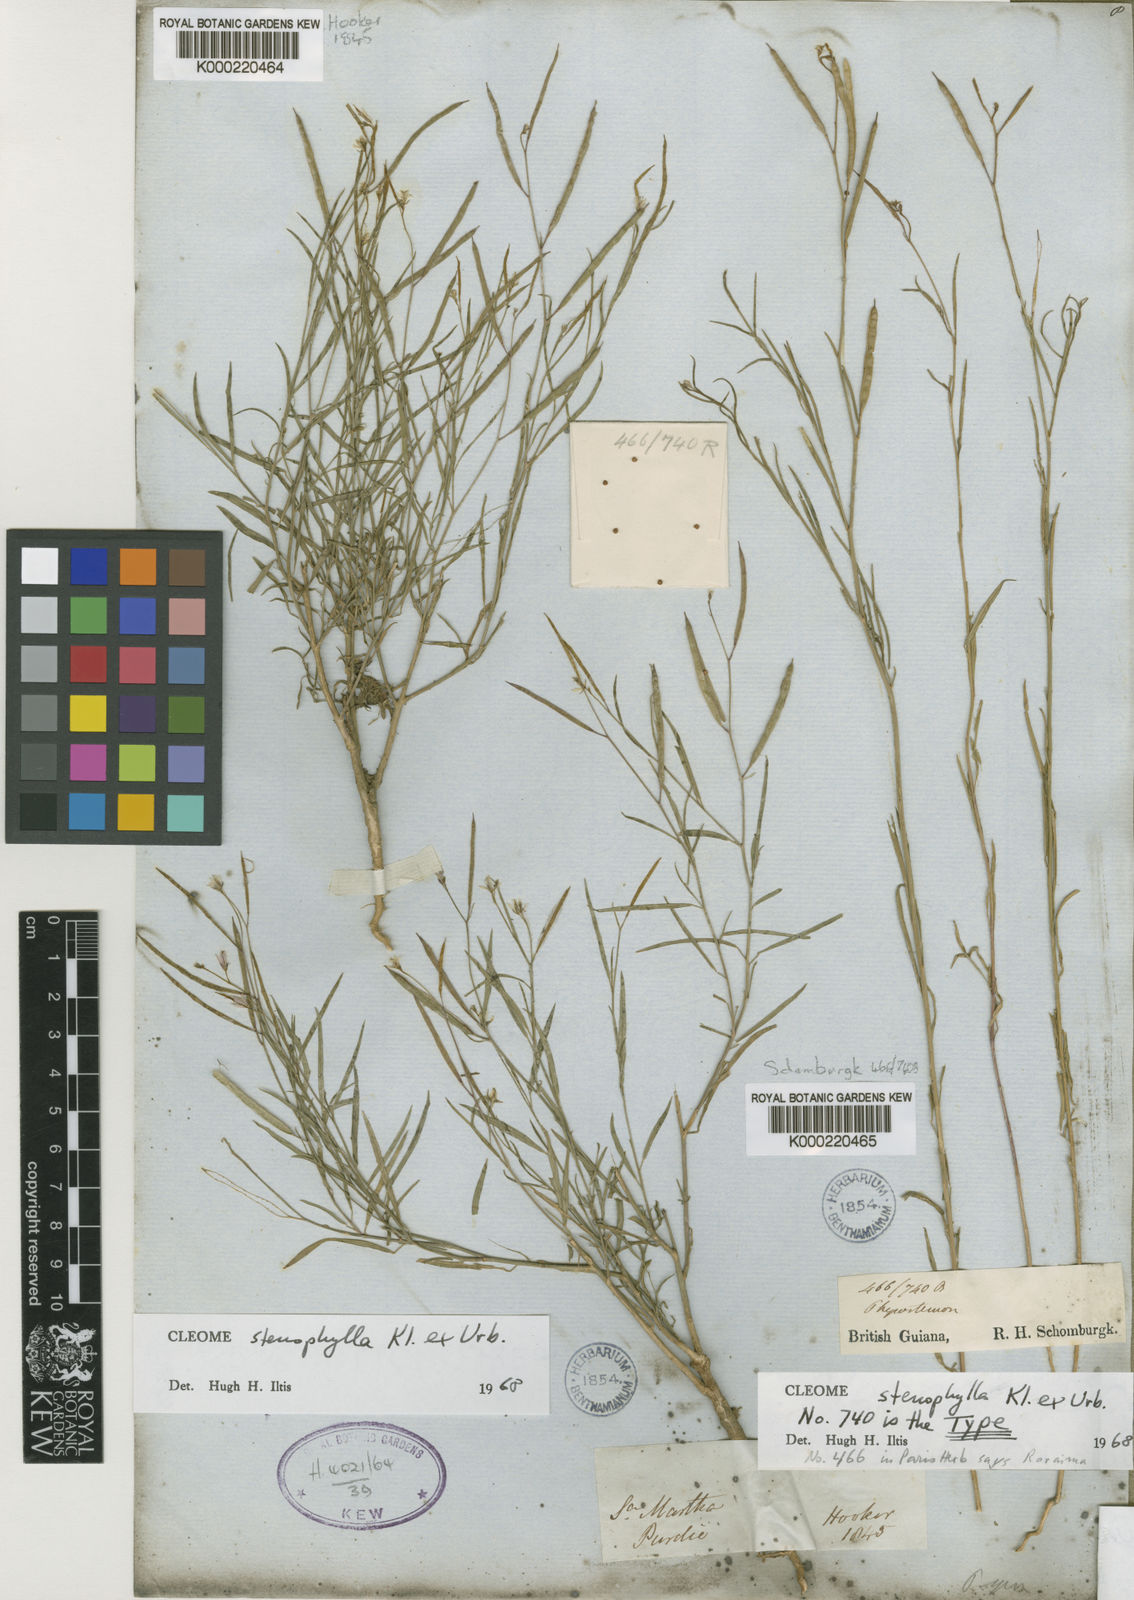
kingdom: Plantae
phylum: Tracheophyta
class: Magnoliopsida
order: Brassicales
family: Cleomaceae
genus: Physostemon
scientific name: Physostemon stenophyllus
